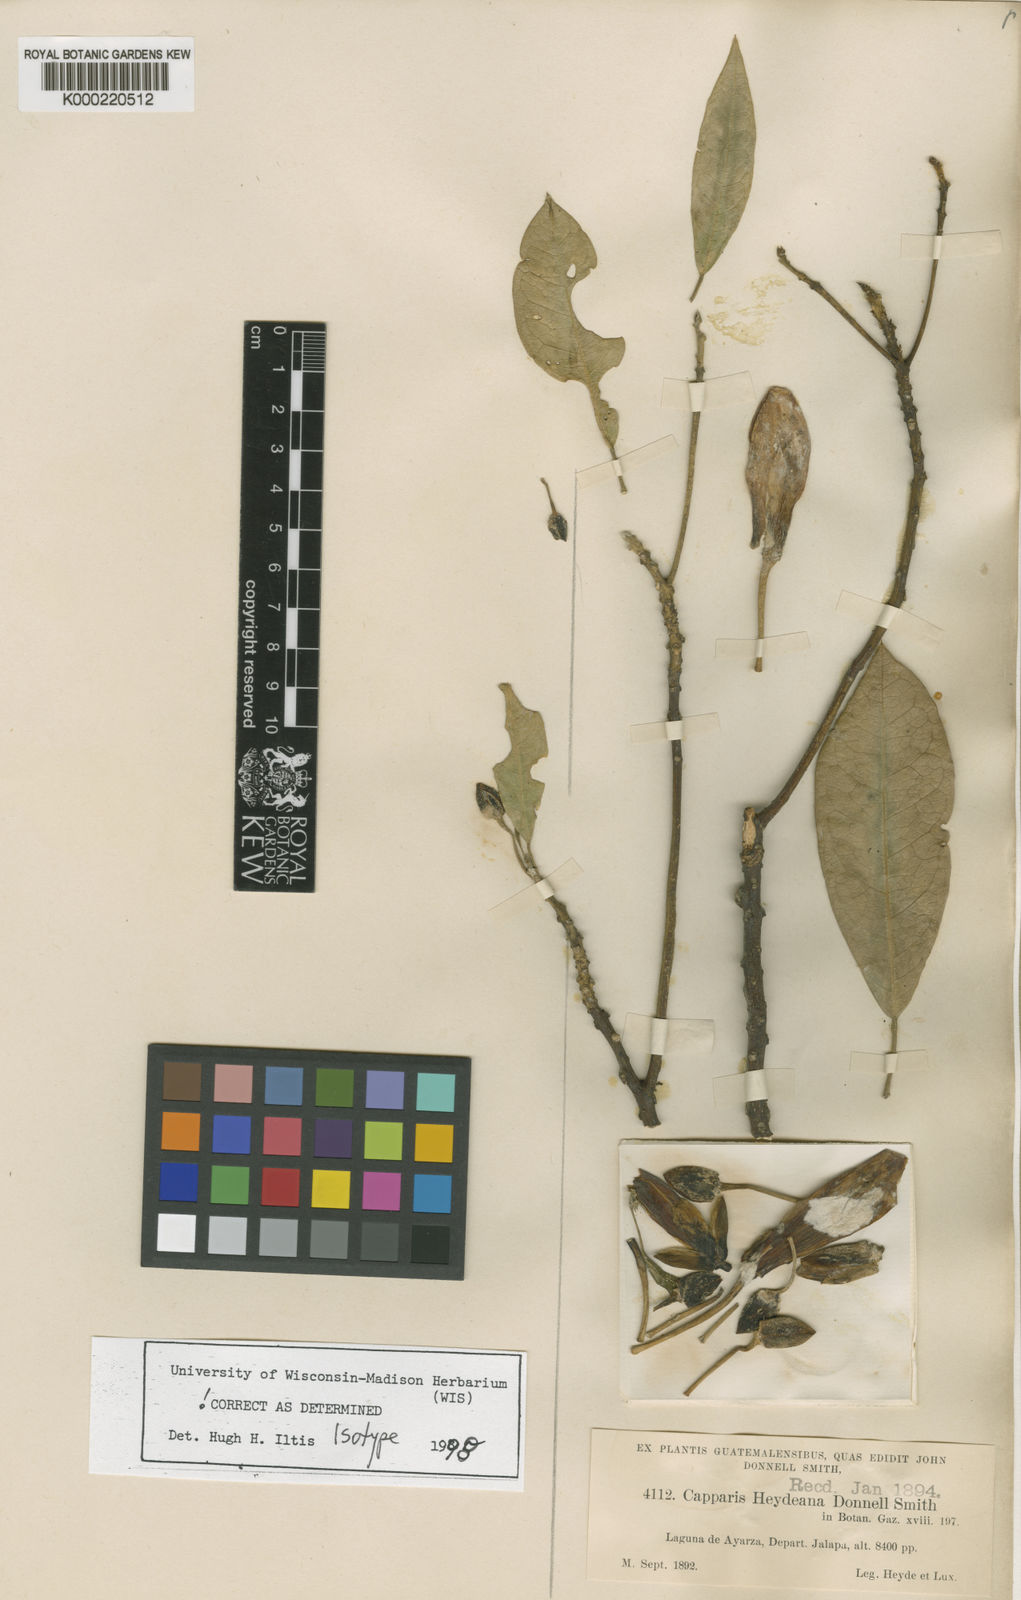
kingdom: Plantae
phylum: Tracheophyta
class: Magnoliopsida
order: Brassicales
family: Capparaceae
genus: Caphexandra
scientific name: Caphexandra heydeana
